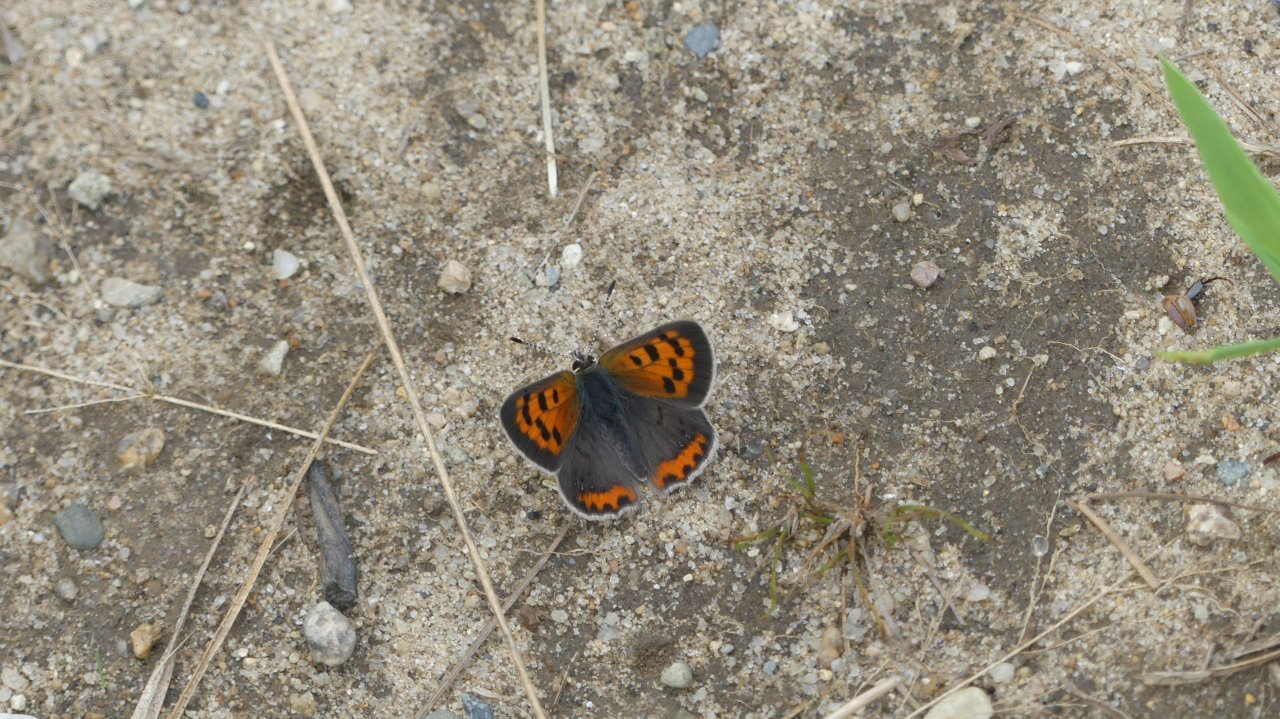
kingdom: Animalia
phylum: Arthropoda
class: Insecta
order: Lepidoptera
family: Lycaenidae
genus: Lycaena
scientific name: Lycaena phlaeas
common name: American Copper
